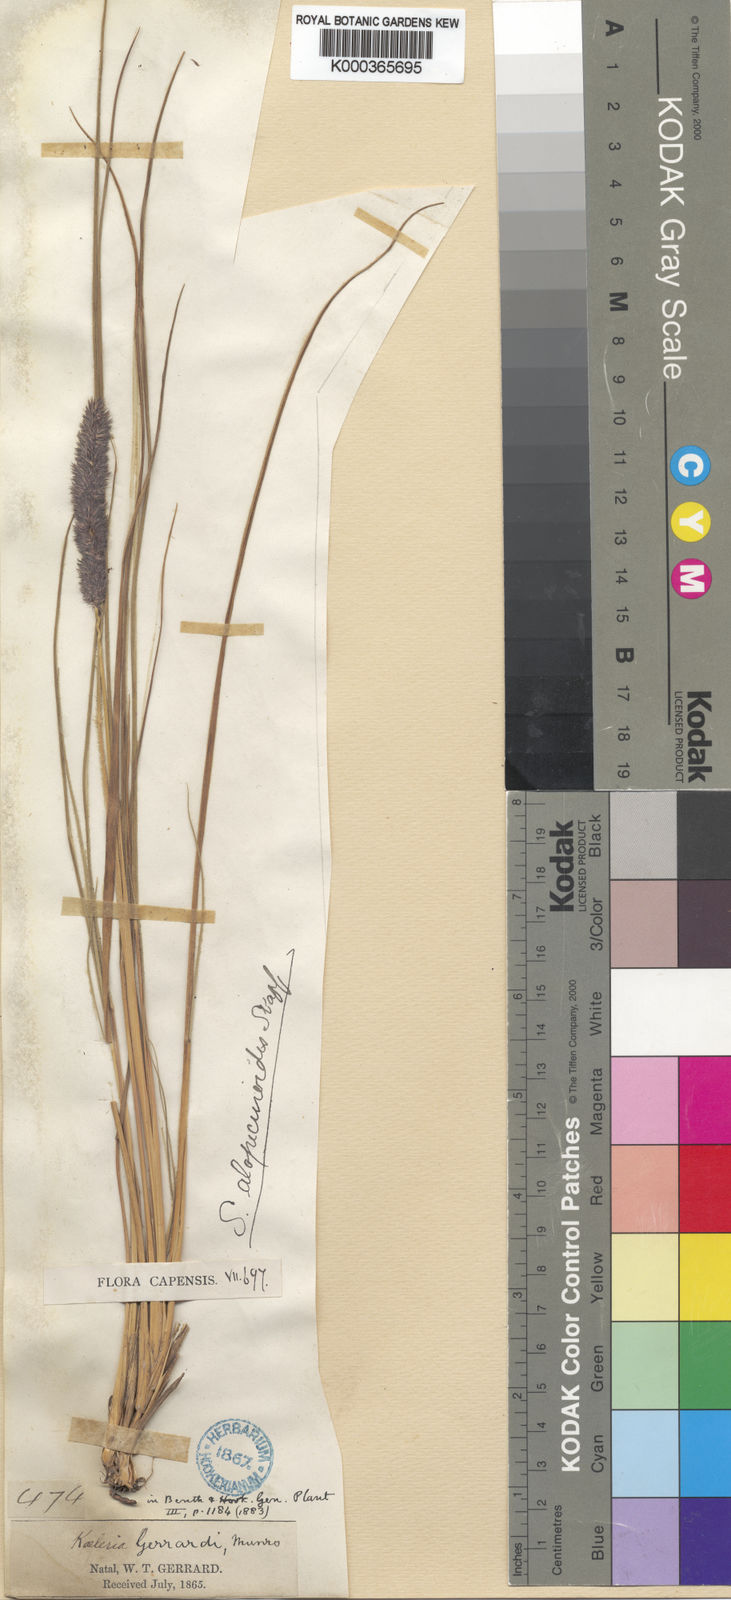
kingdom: Plantae
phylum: Tracheophyta
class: Liliopsida
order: Poales
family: Poaceae
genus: Eragrostis
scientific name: Eragrostis alopecuroides
